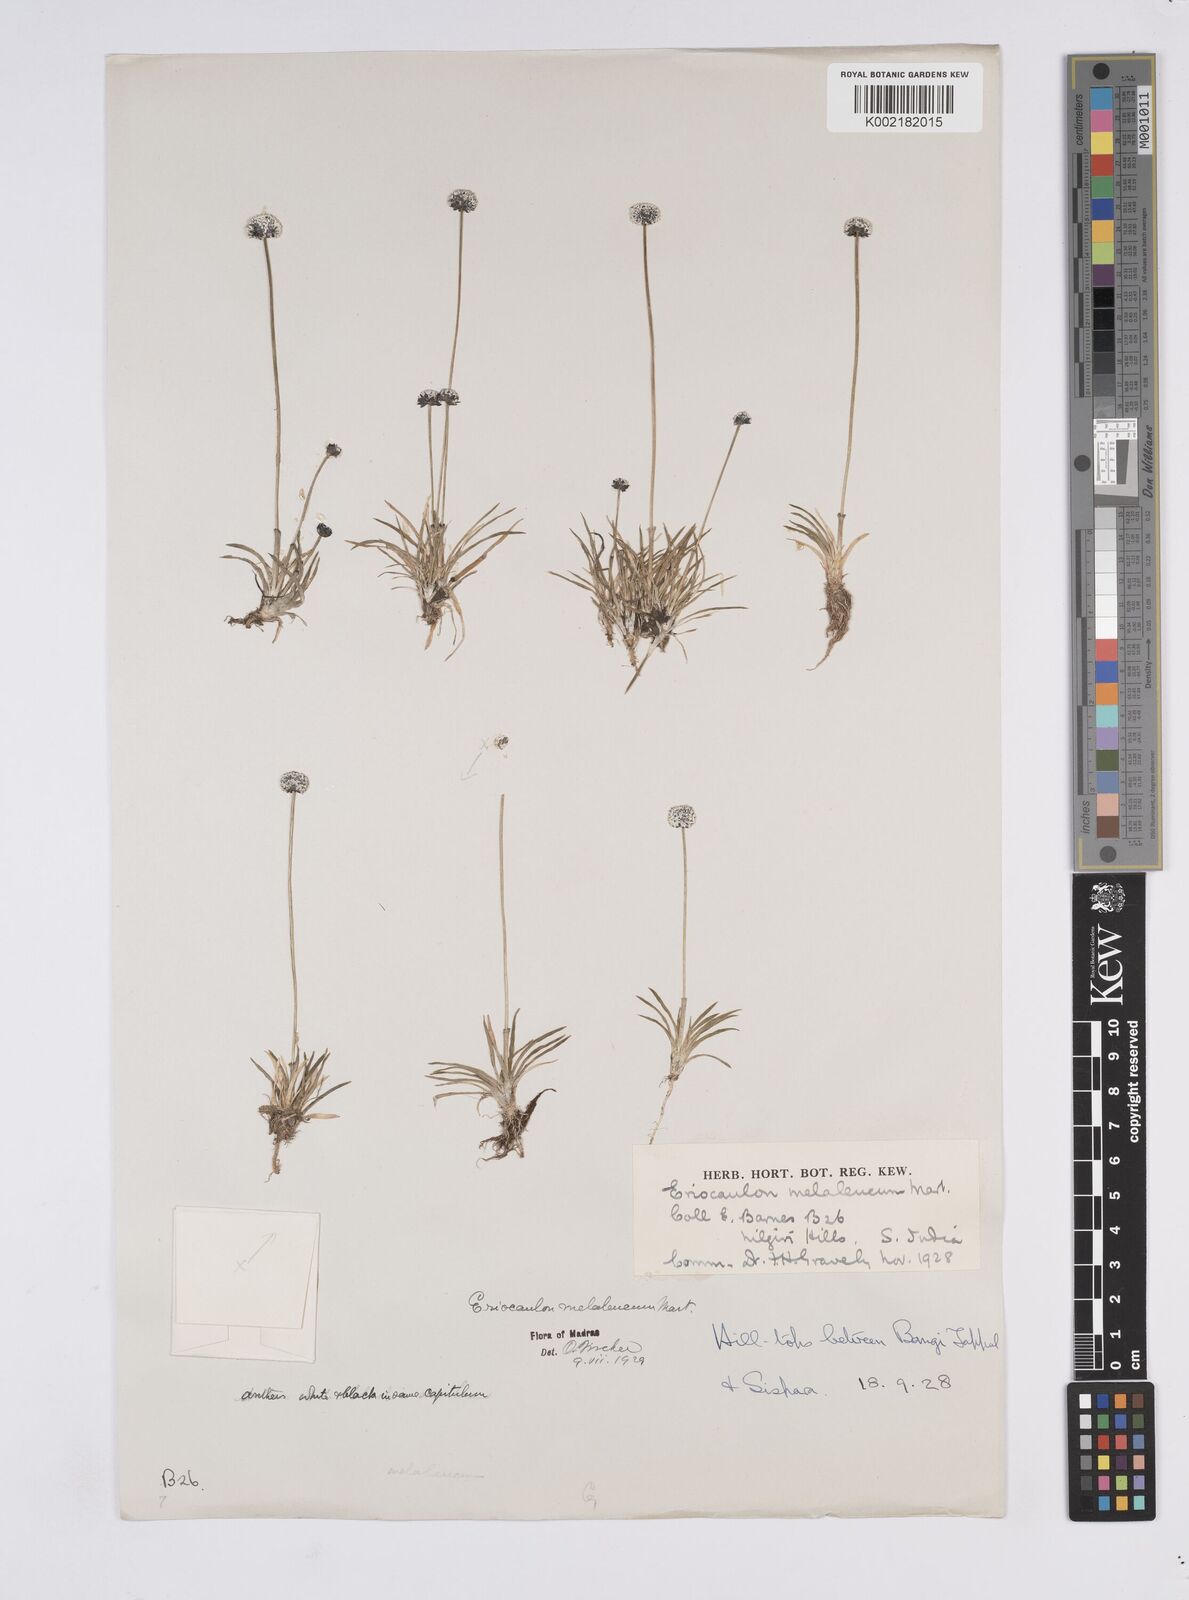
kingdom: Plantae
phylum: Tracheophyta
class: Liliopsida
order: Poales
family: Eriocaulaceae
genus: Eriocaulon
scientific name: Eriocaulon leucomelas
